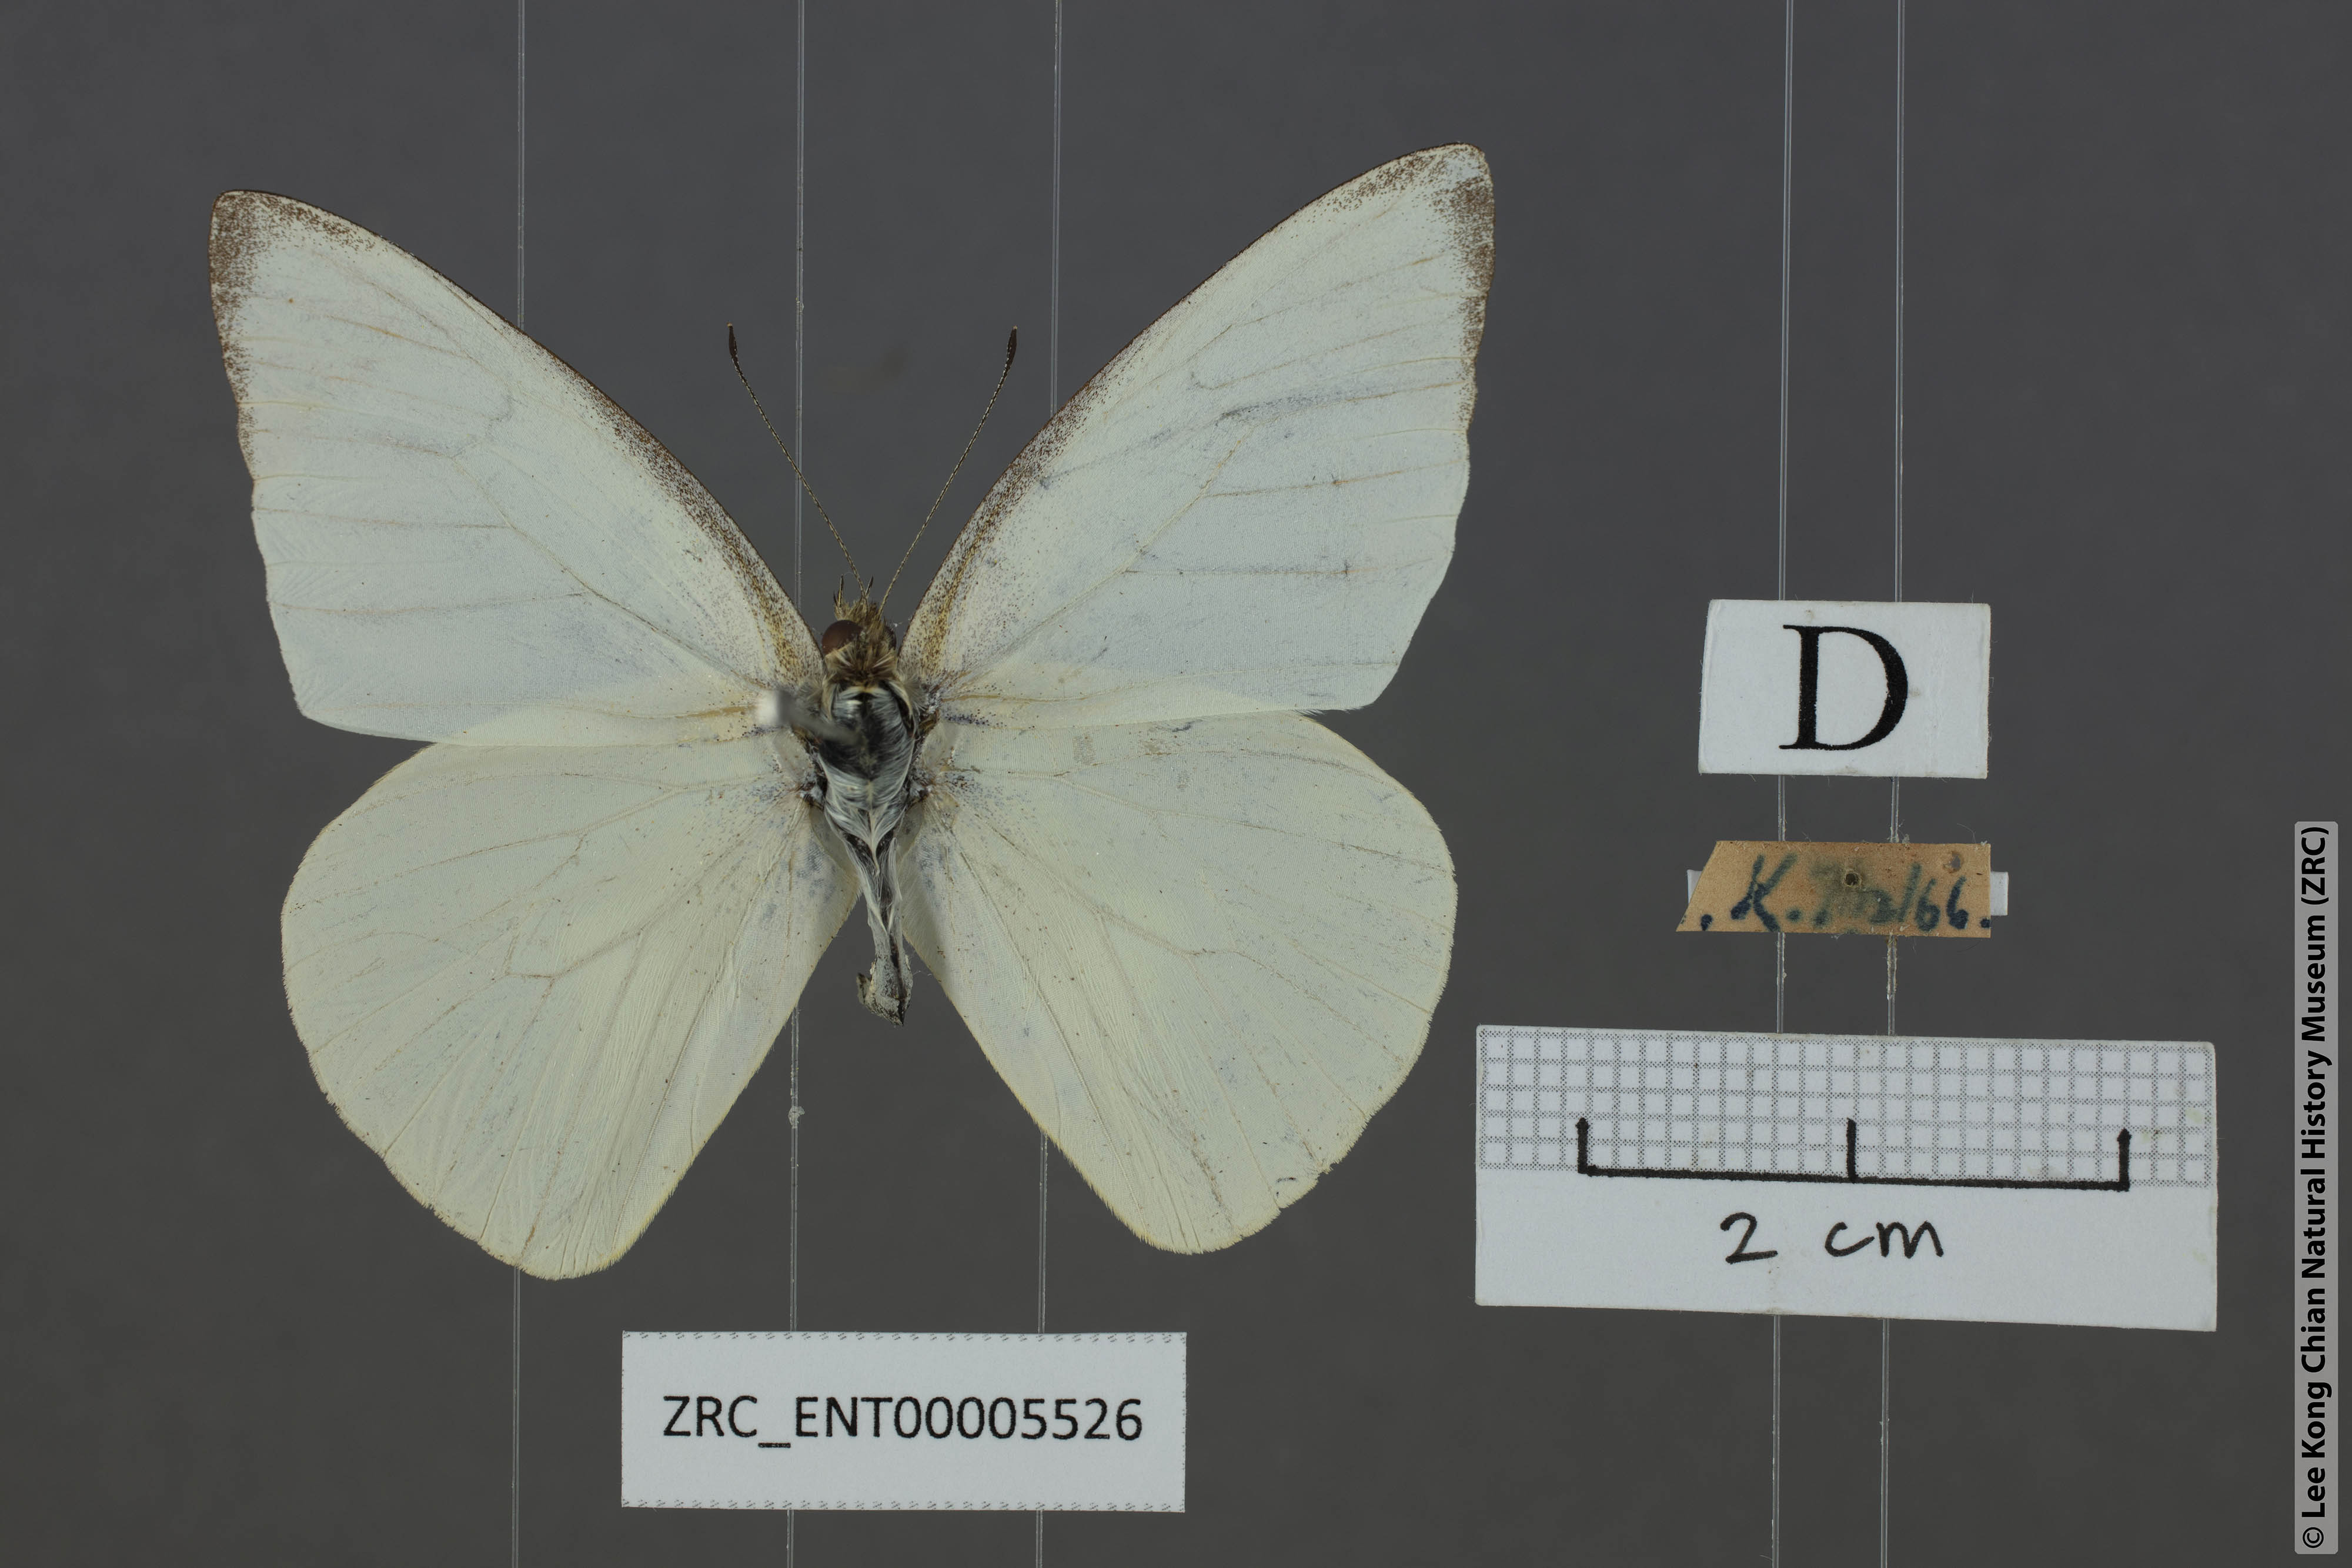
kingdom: Animalia
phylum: Arthropoda
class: Insecta
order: Lepidoptera
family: Pieridae
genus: Appias
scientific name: Appias albina
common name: Common albatross
